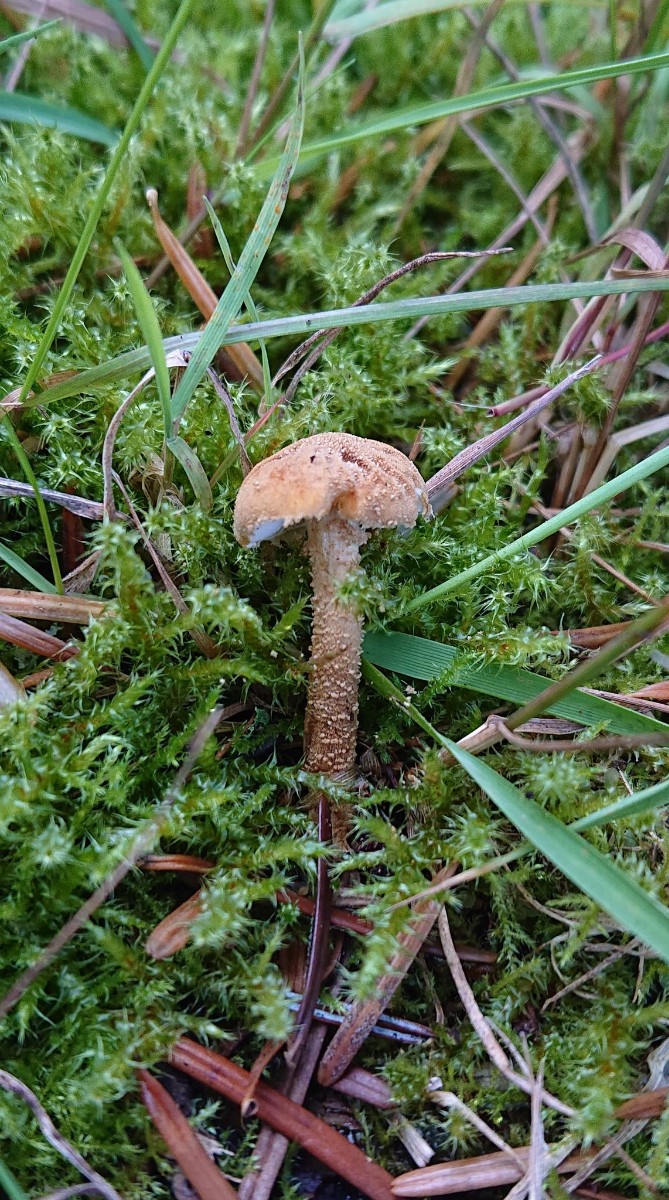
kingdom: Fungi
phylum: Basidiomycota
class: Agaricomycetes
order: Agaricales
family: Tricholomataceae
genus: Cystoderma
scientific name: Cystoderma amianthinum
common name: okkergul grynhat
